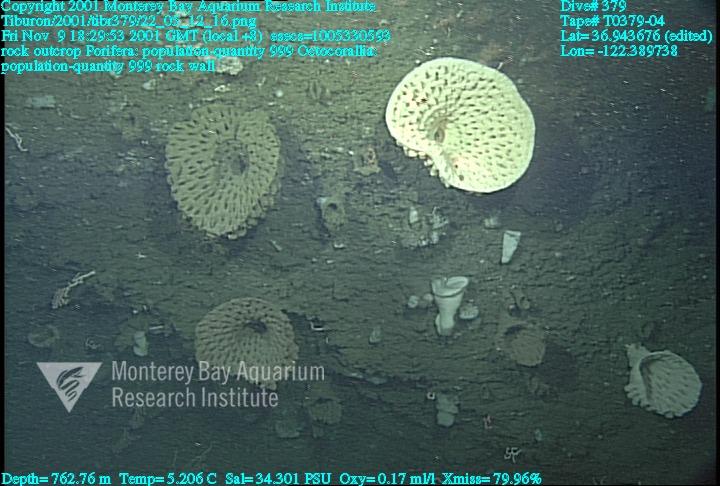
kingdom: Animalia
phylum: Porifera
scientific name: Porifera
